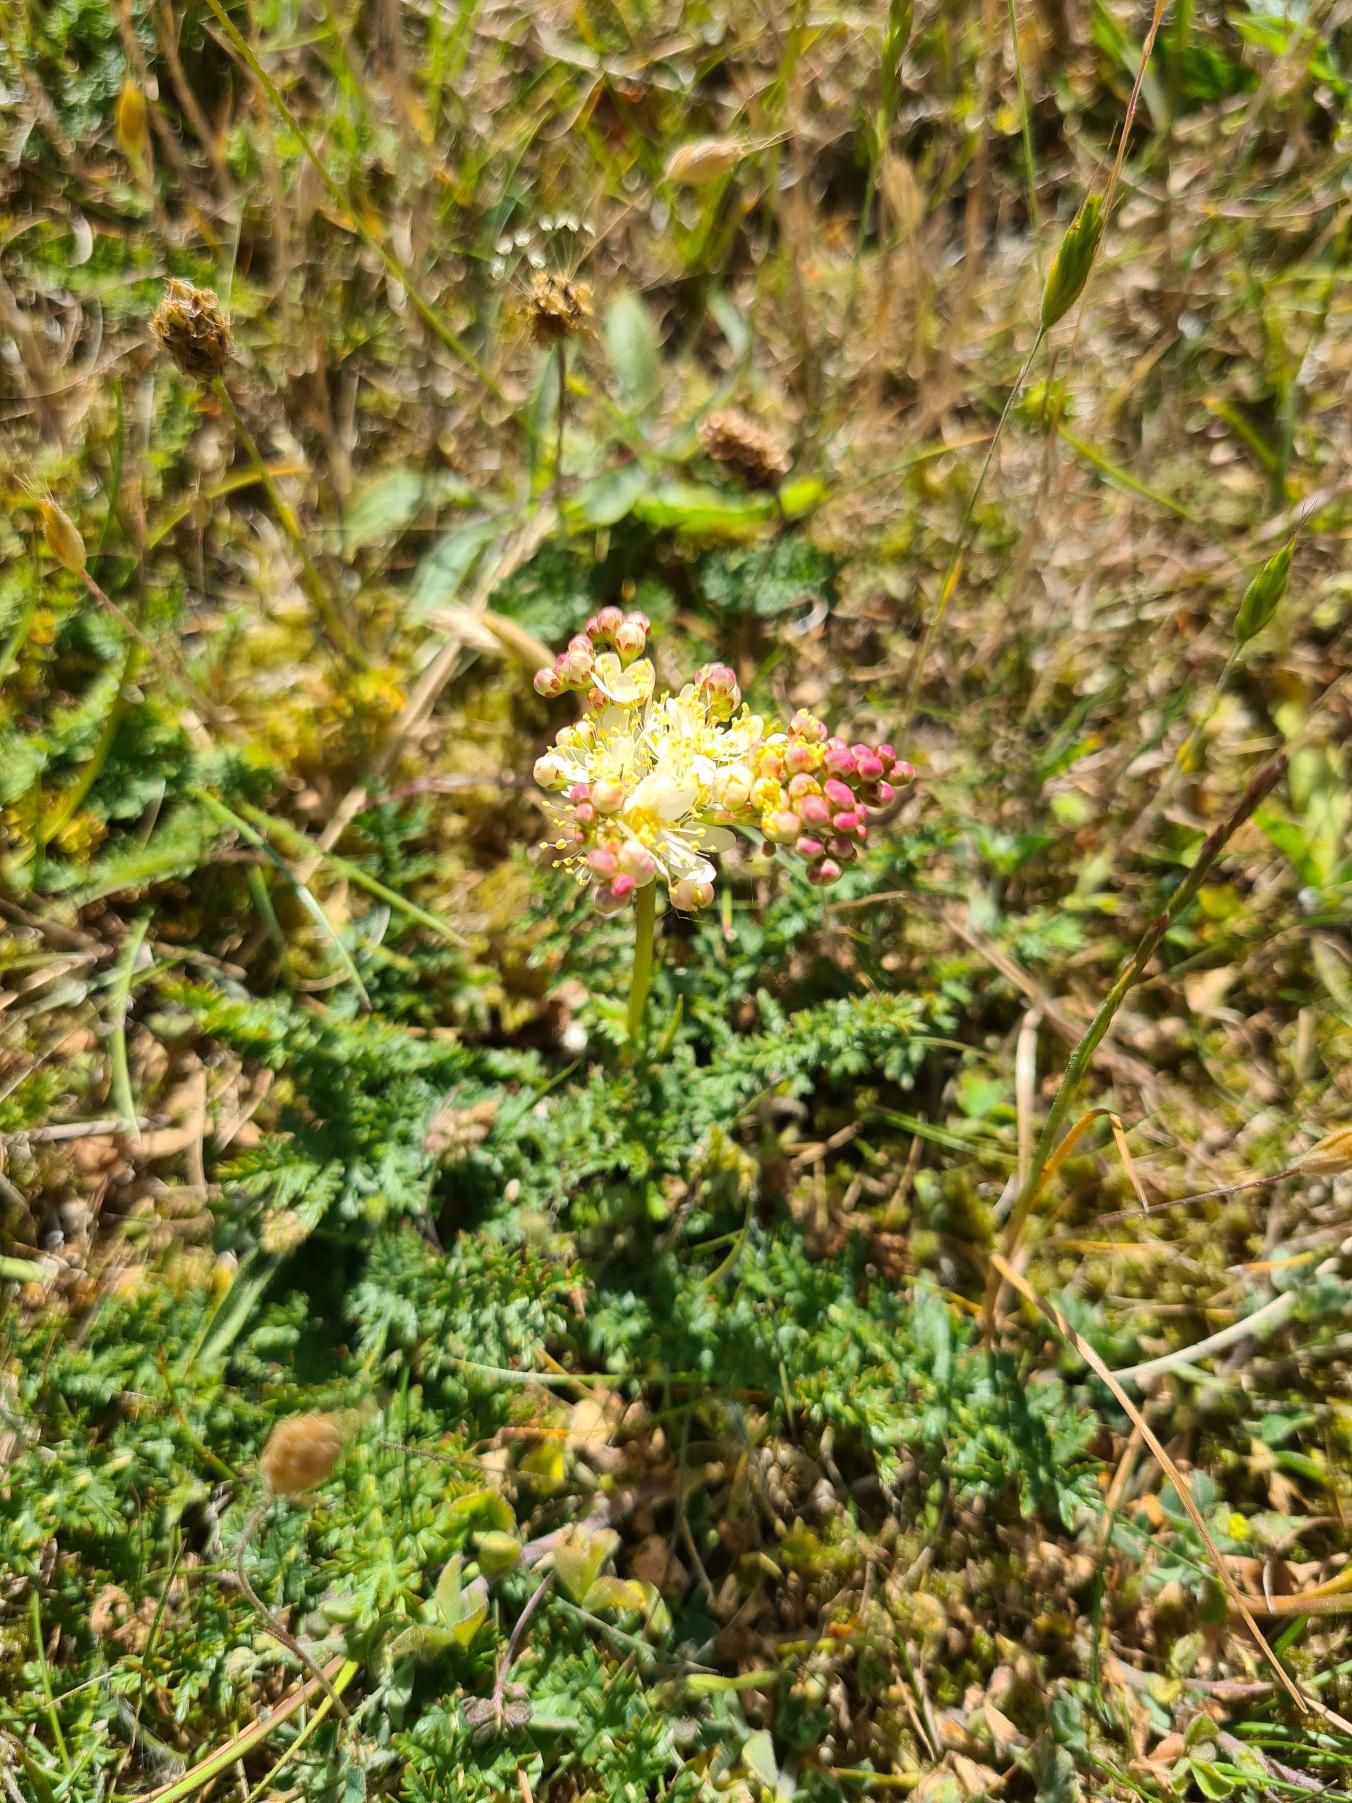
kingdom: Plantae
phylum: Tracheophyta
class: Magnoliopsida
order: Rosales
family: Rosaceae
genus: Filipendula
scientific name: Filipendula vulgaris
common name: Knoldet mjødurt
